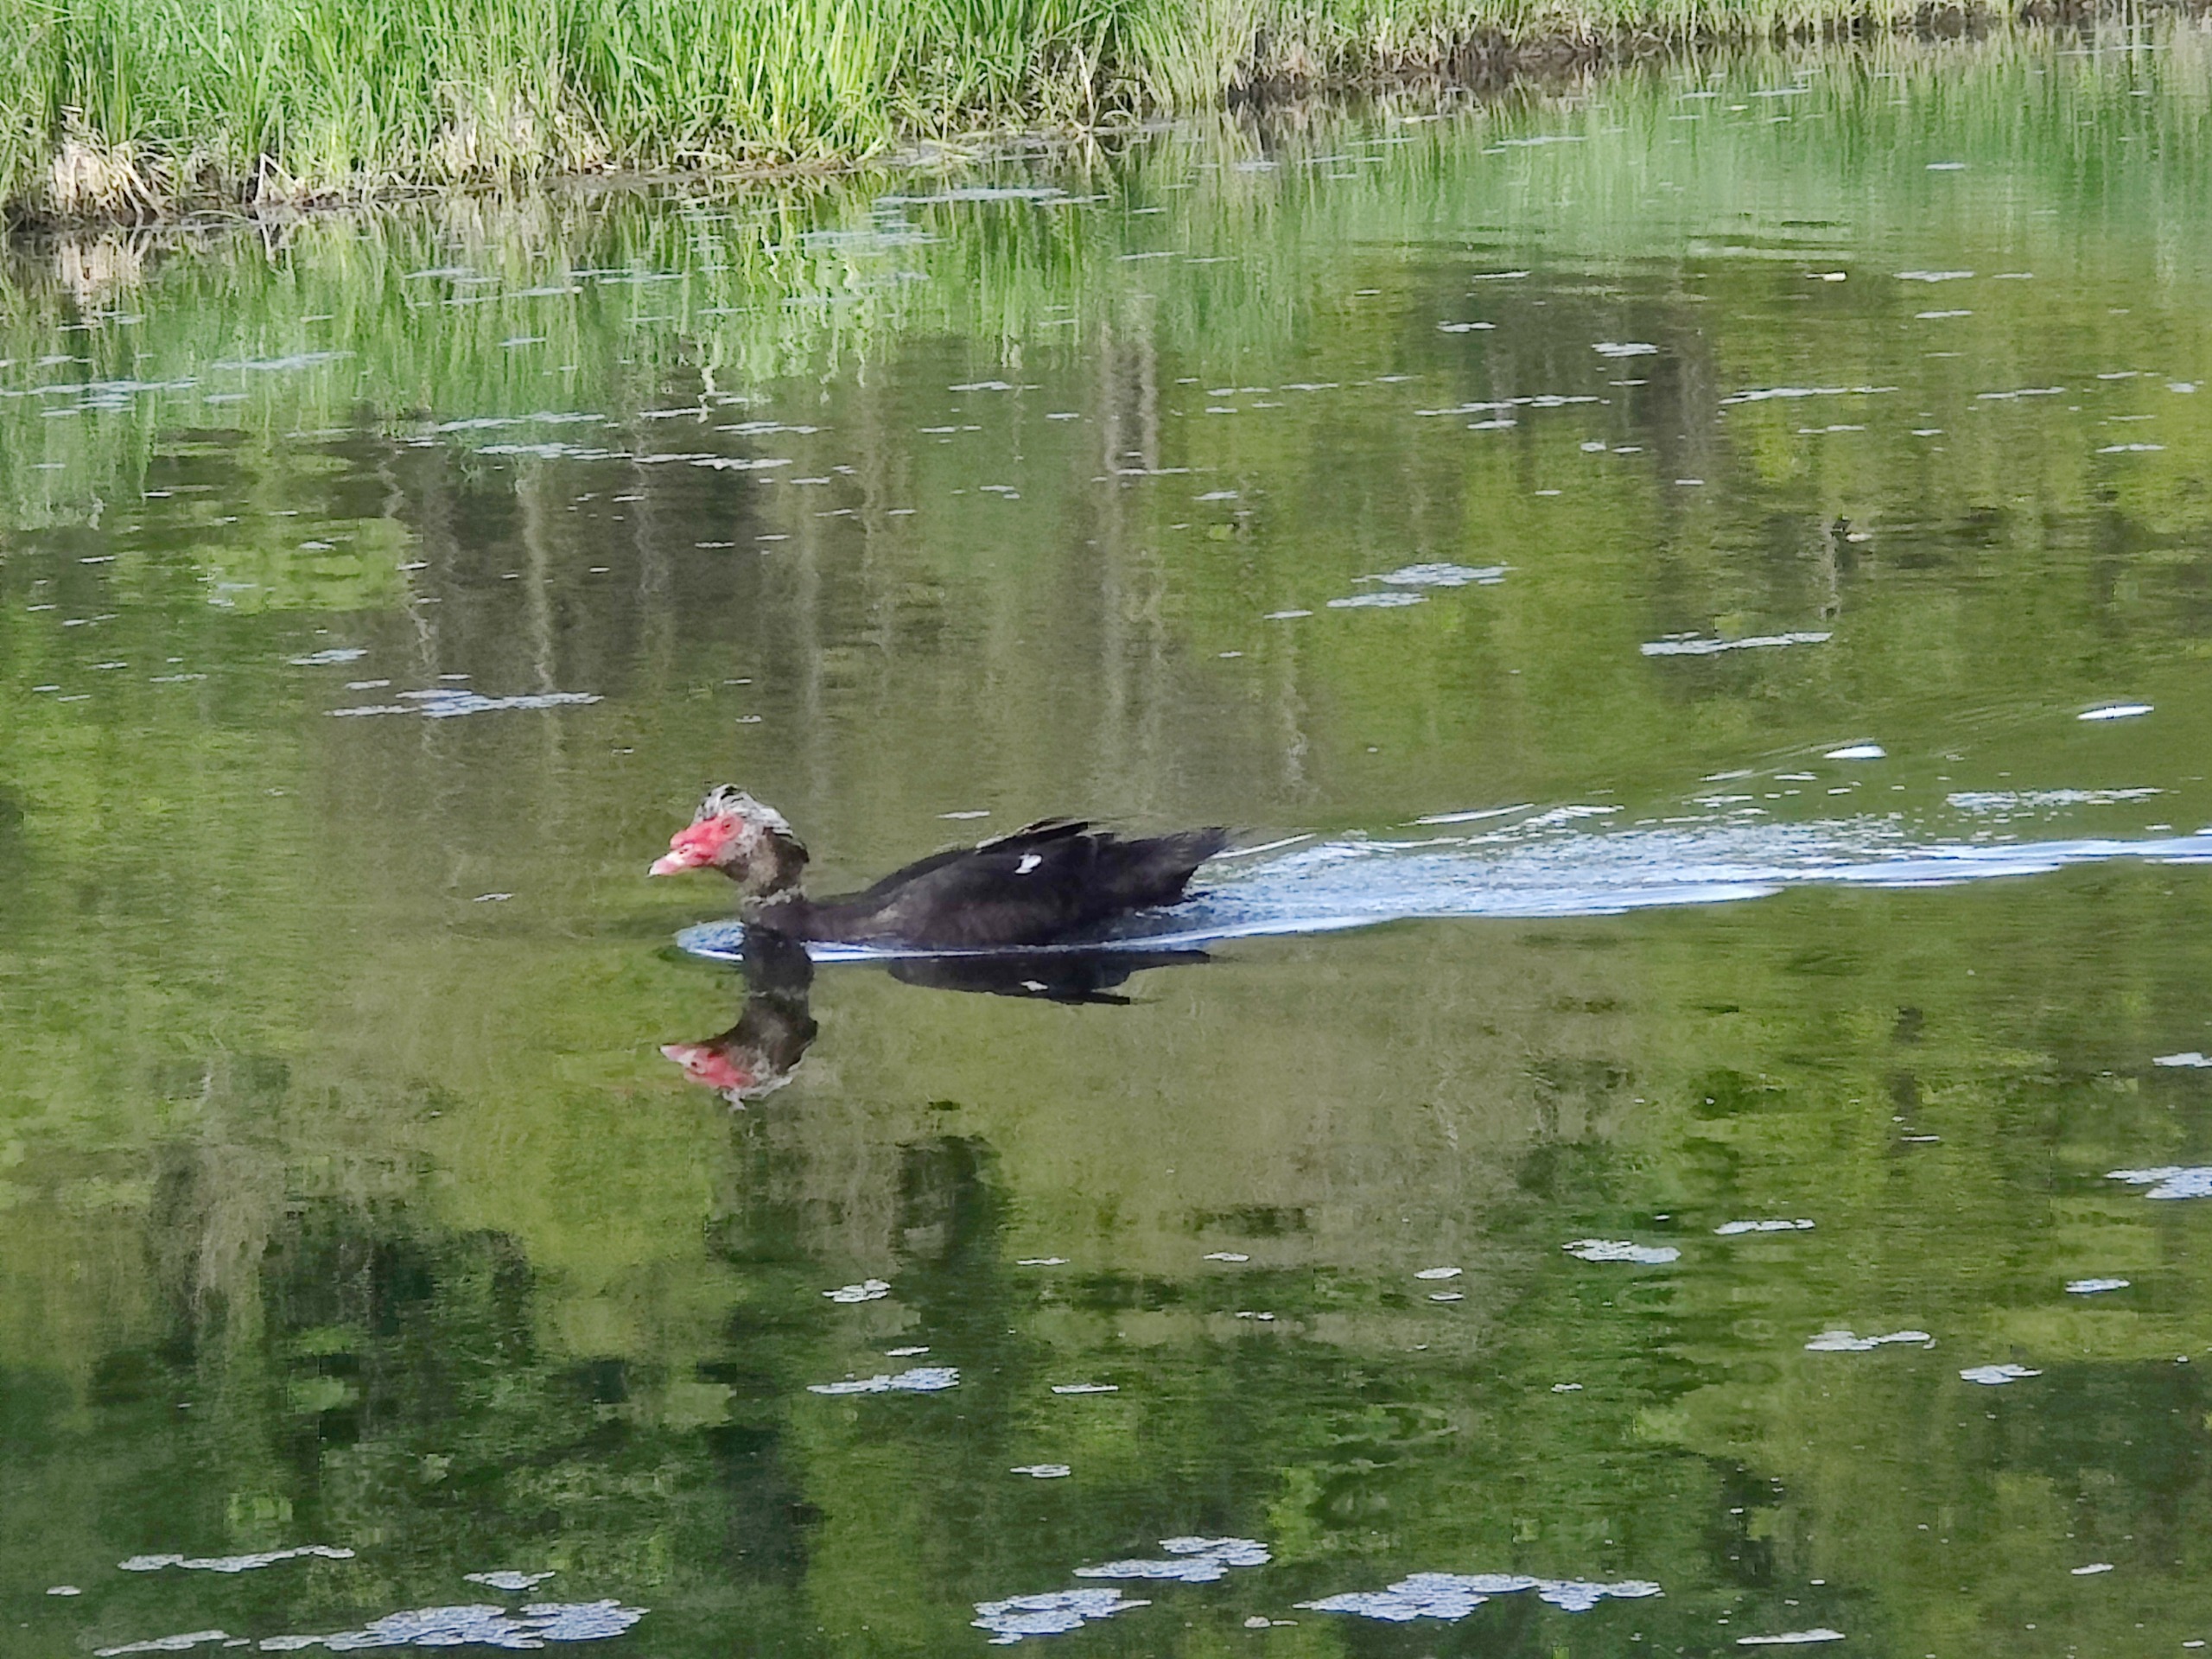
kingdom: Animalia
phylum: Chordata
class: Aves
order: Anseriformes
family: Anatidae
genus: Cairina
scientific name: Cairina moschata
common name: Moskusand
